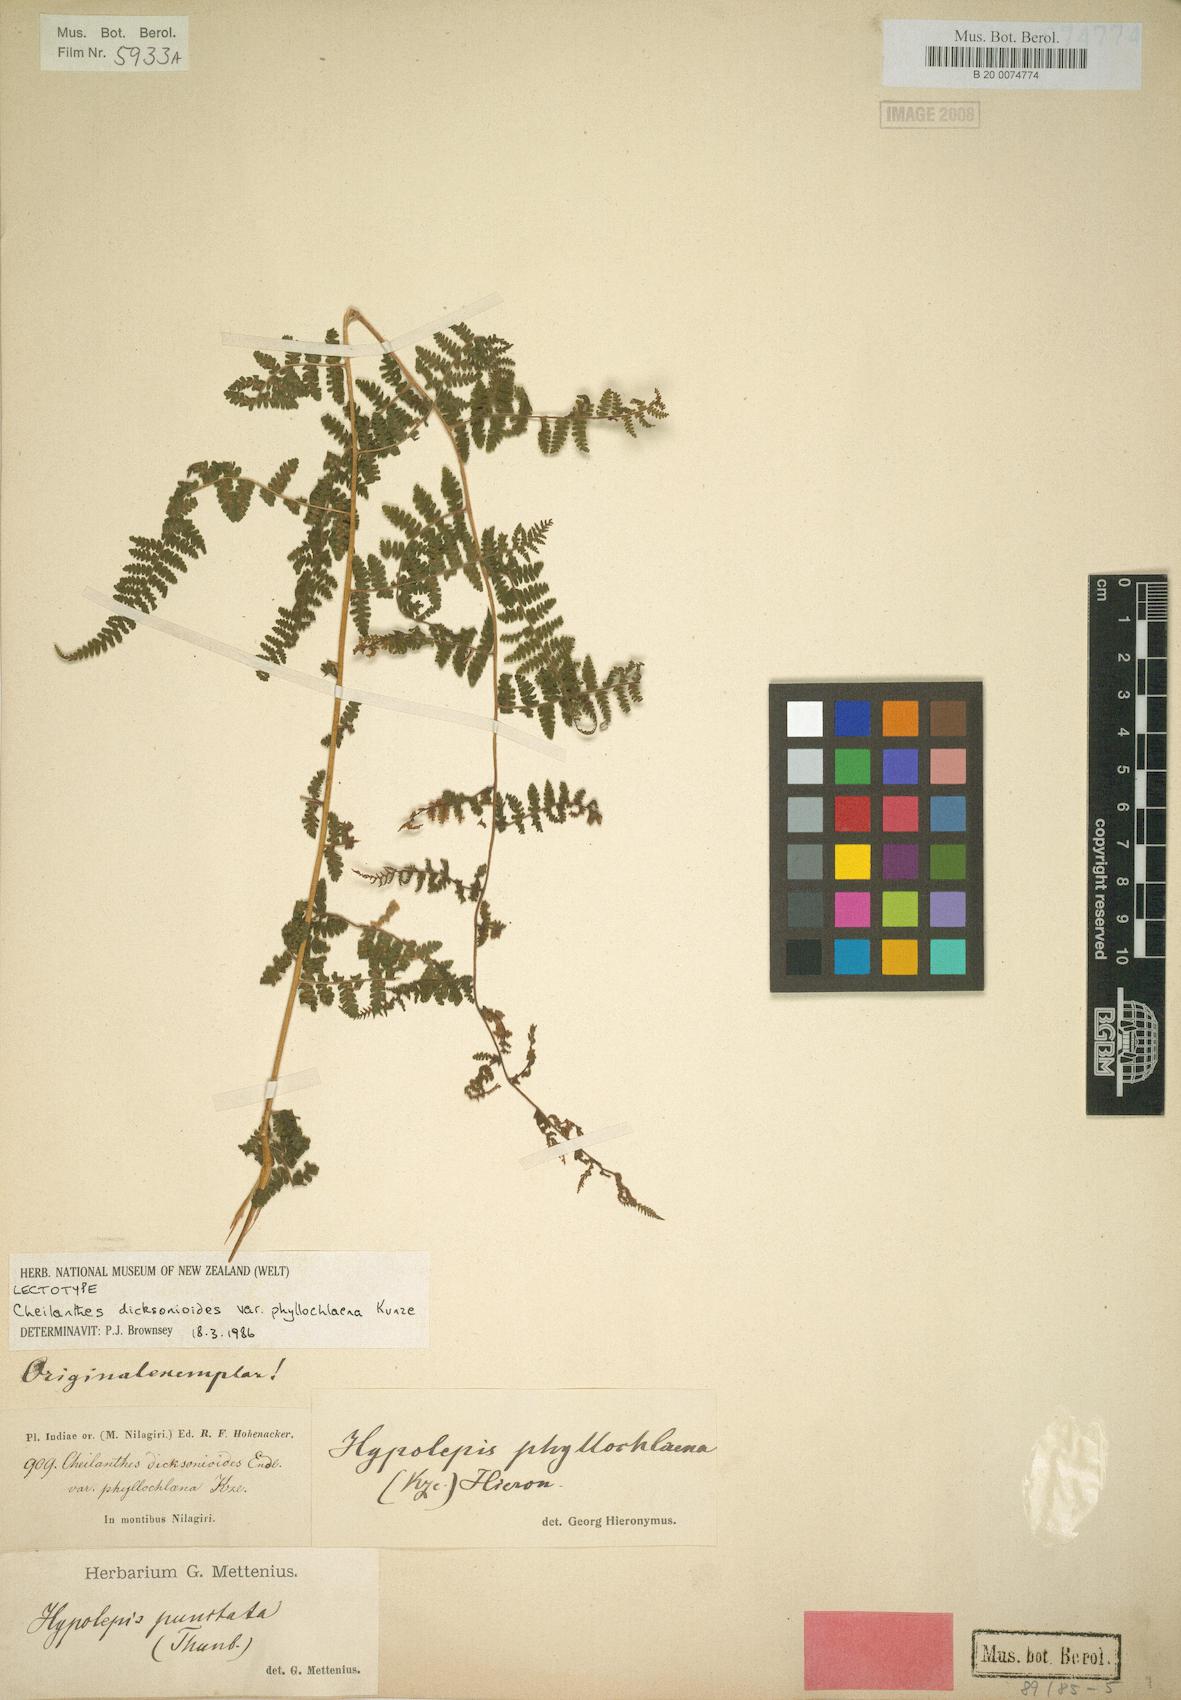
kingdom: Plantae
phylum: Tracheophyta
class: Polypodiopsida
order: Polypodiales
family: Dennstaedtiaceae
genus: Hypolepis
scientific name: Hypolepis resistens
